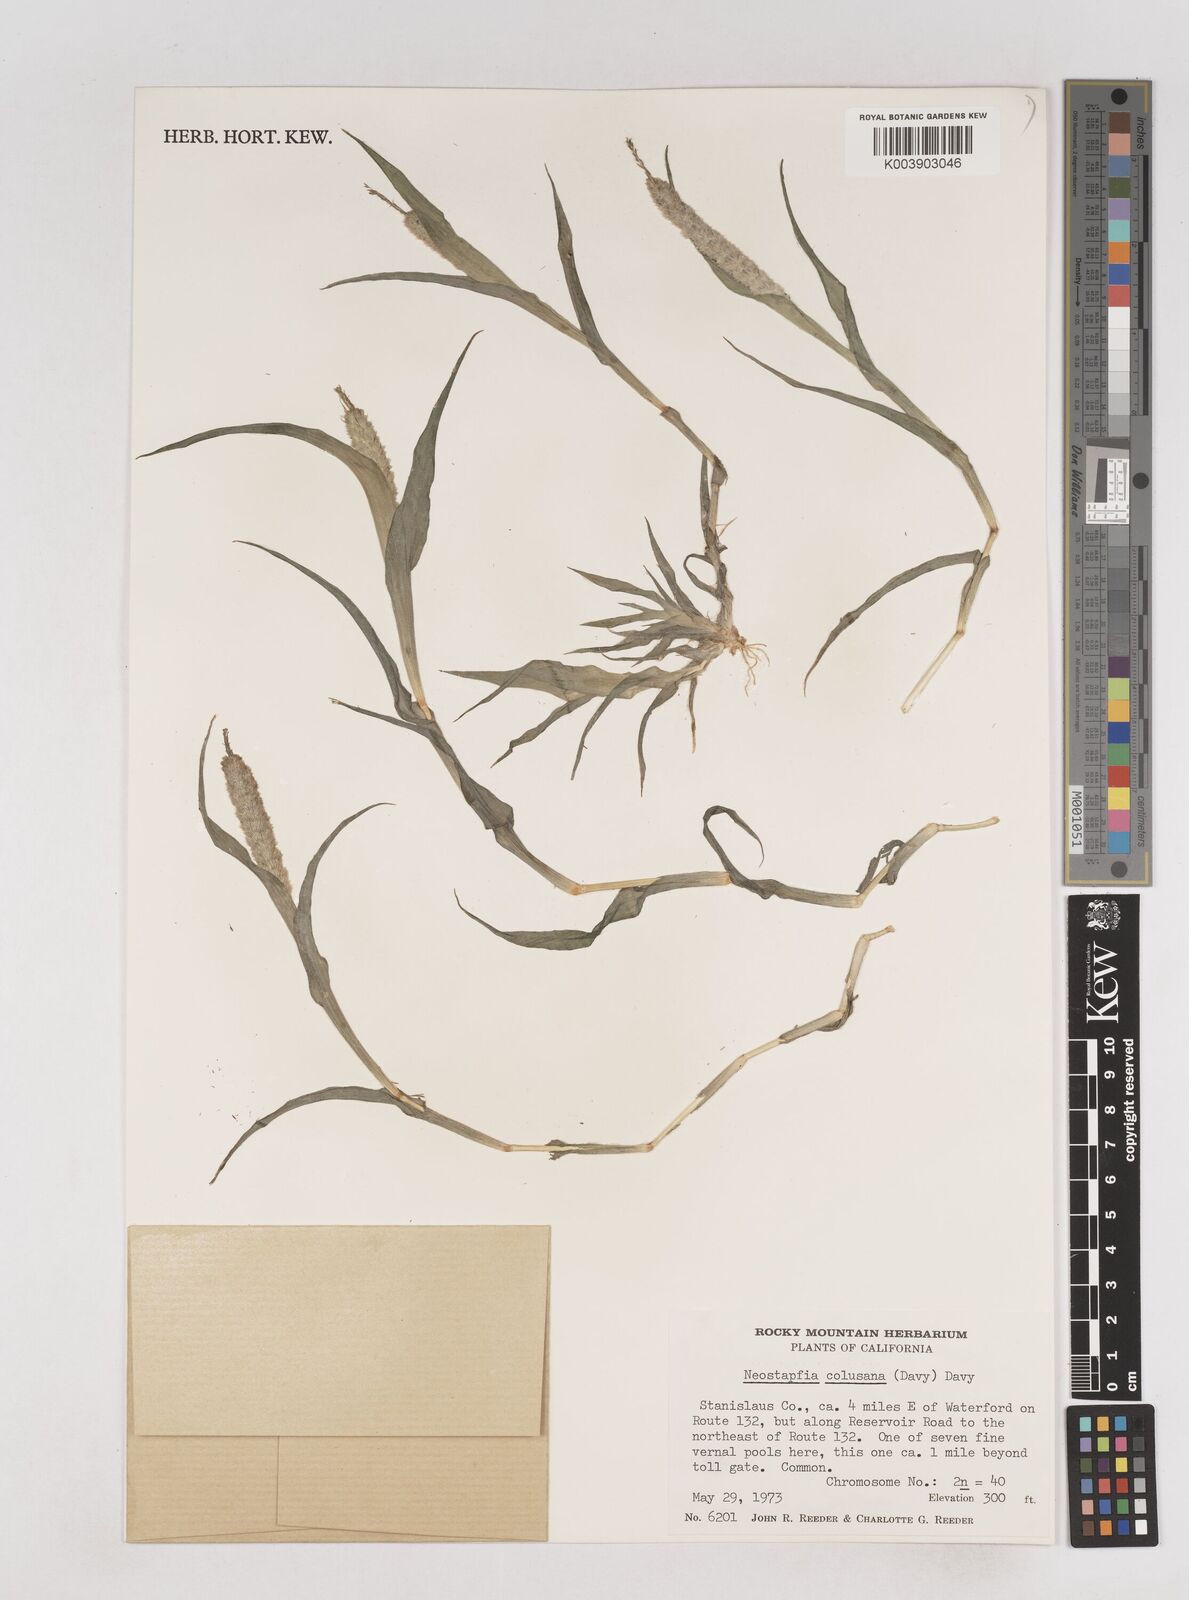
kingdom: Plantae
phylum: Tracheophyta
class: Liliopsida
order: Poales
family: Poaceae
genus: Neostapfia
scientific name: Neostapfia colusana
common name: Colusa grass
